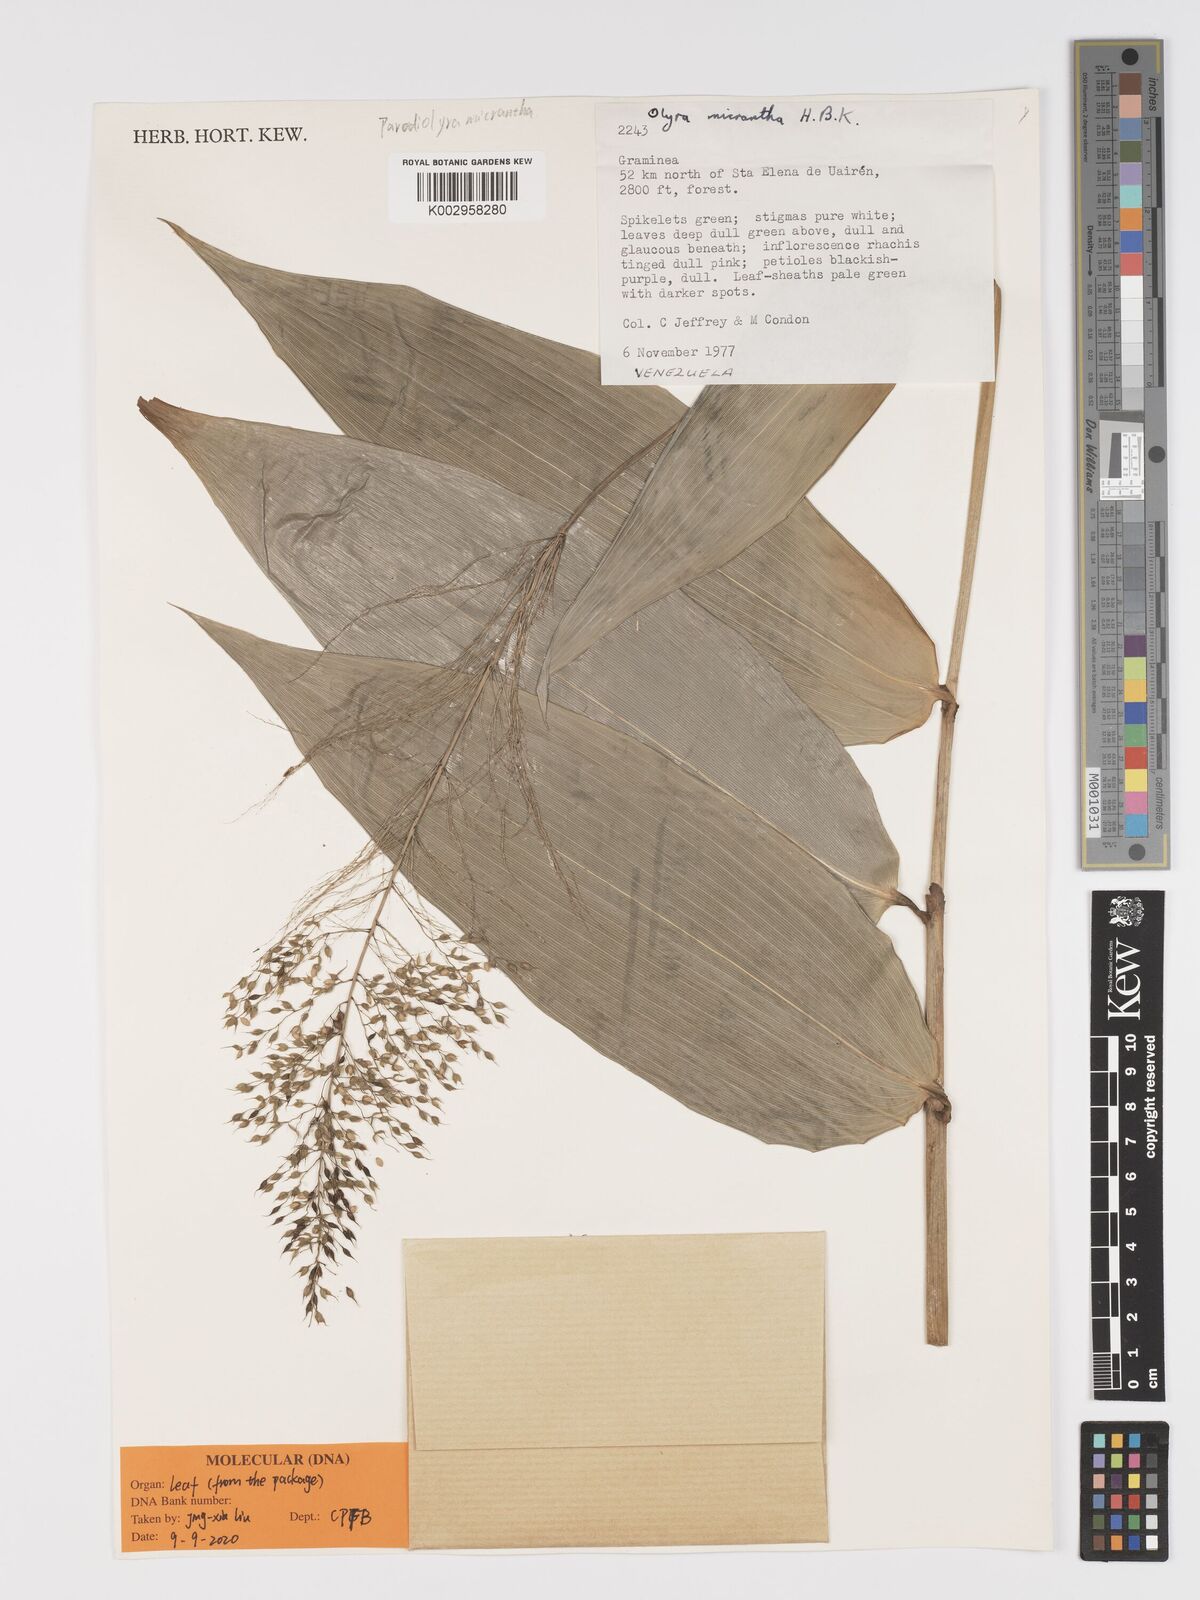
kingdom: Plantae
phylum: Tracheophyta
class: Liliopsida
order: Poales
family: Poaceae
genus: Taquara
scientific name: Taquara micrantha
